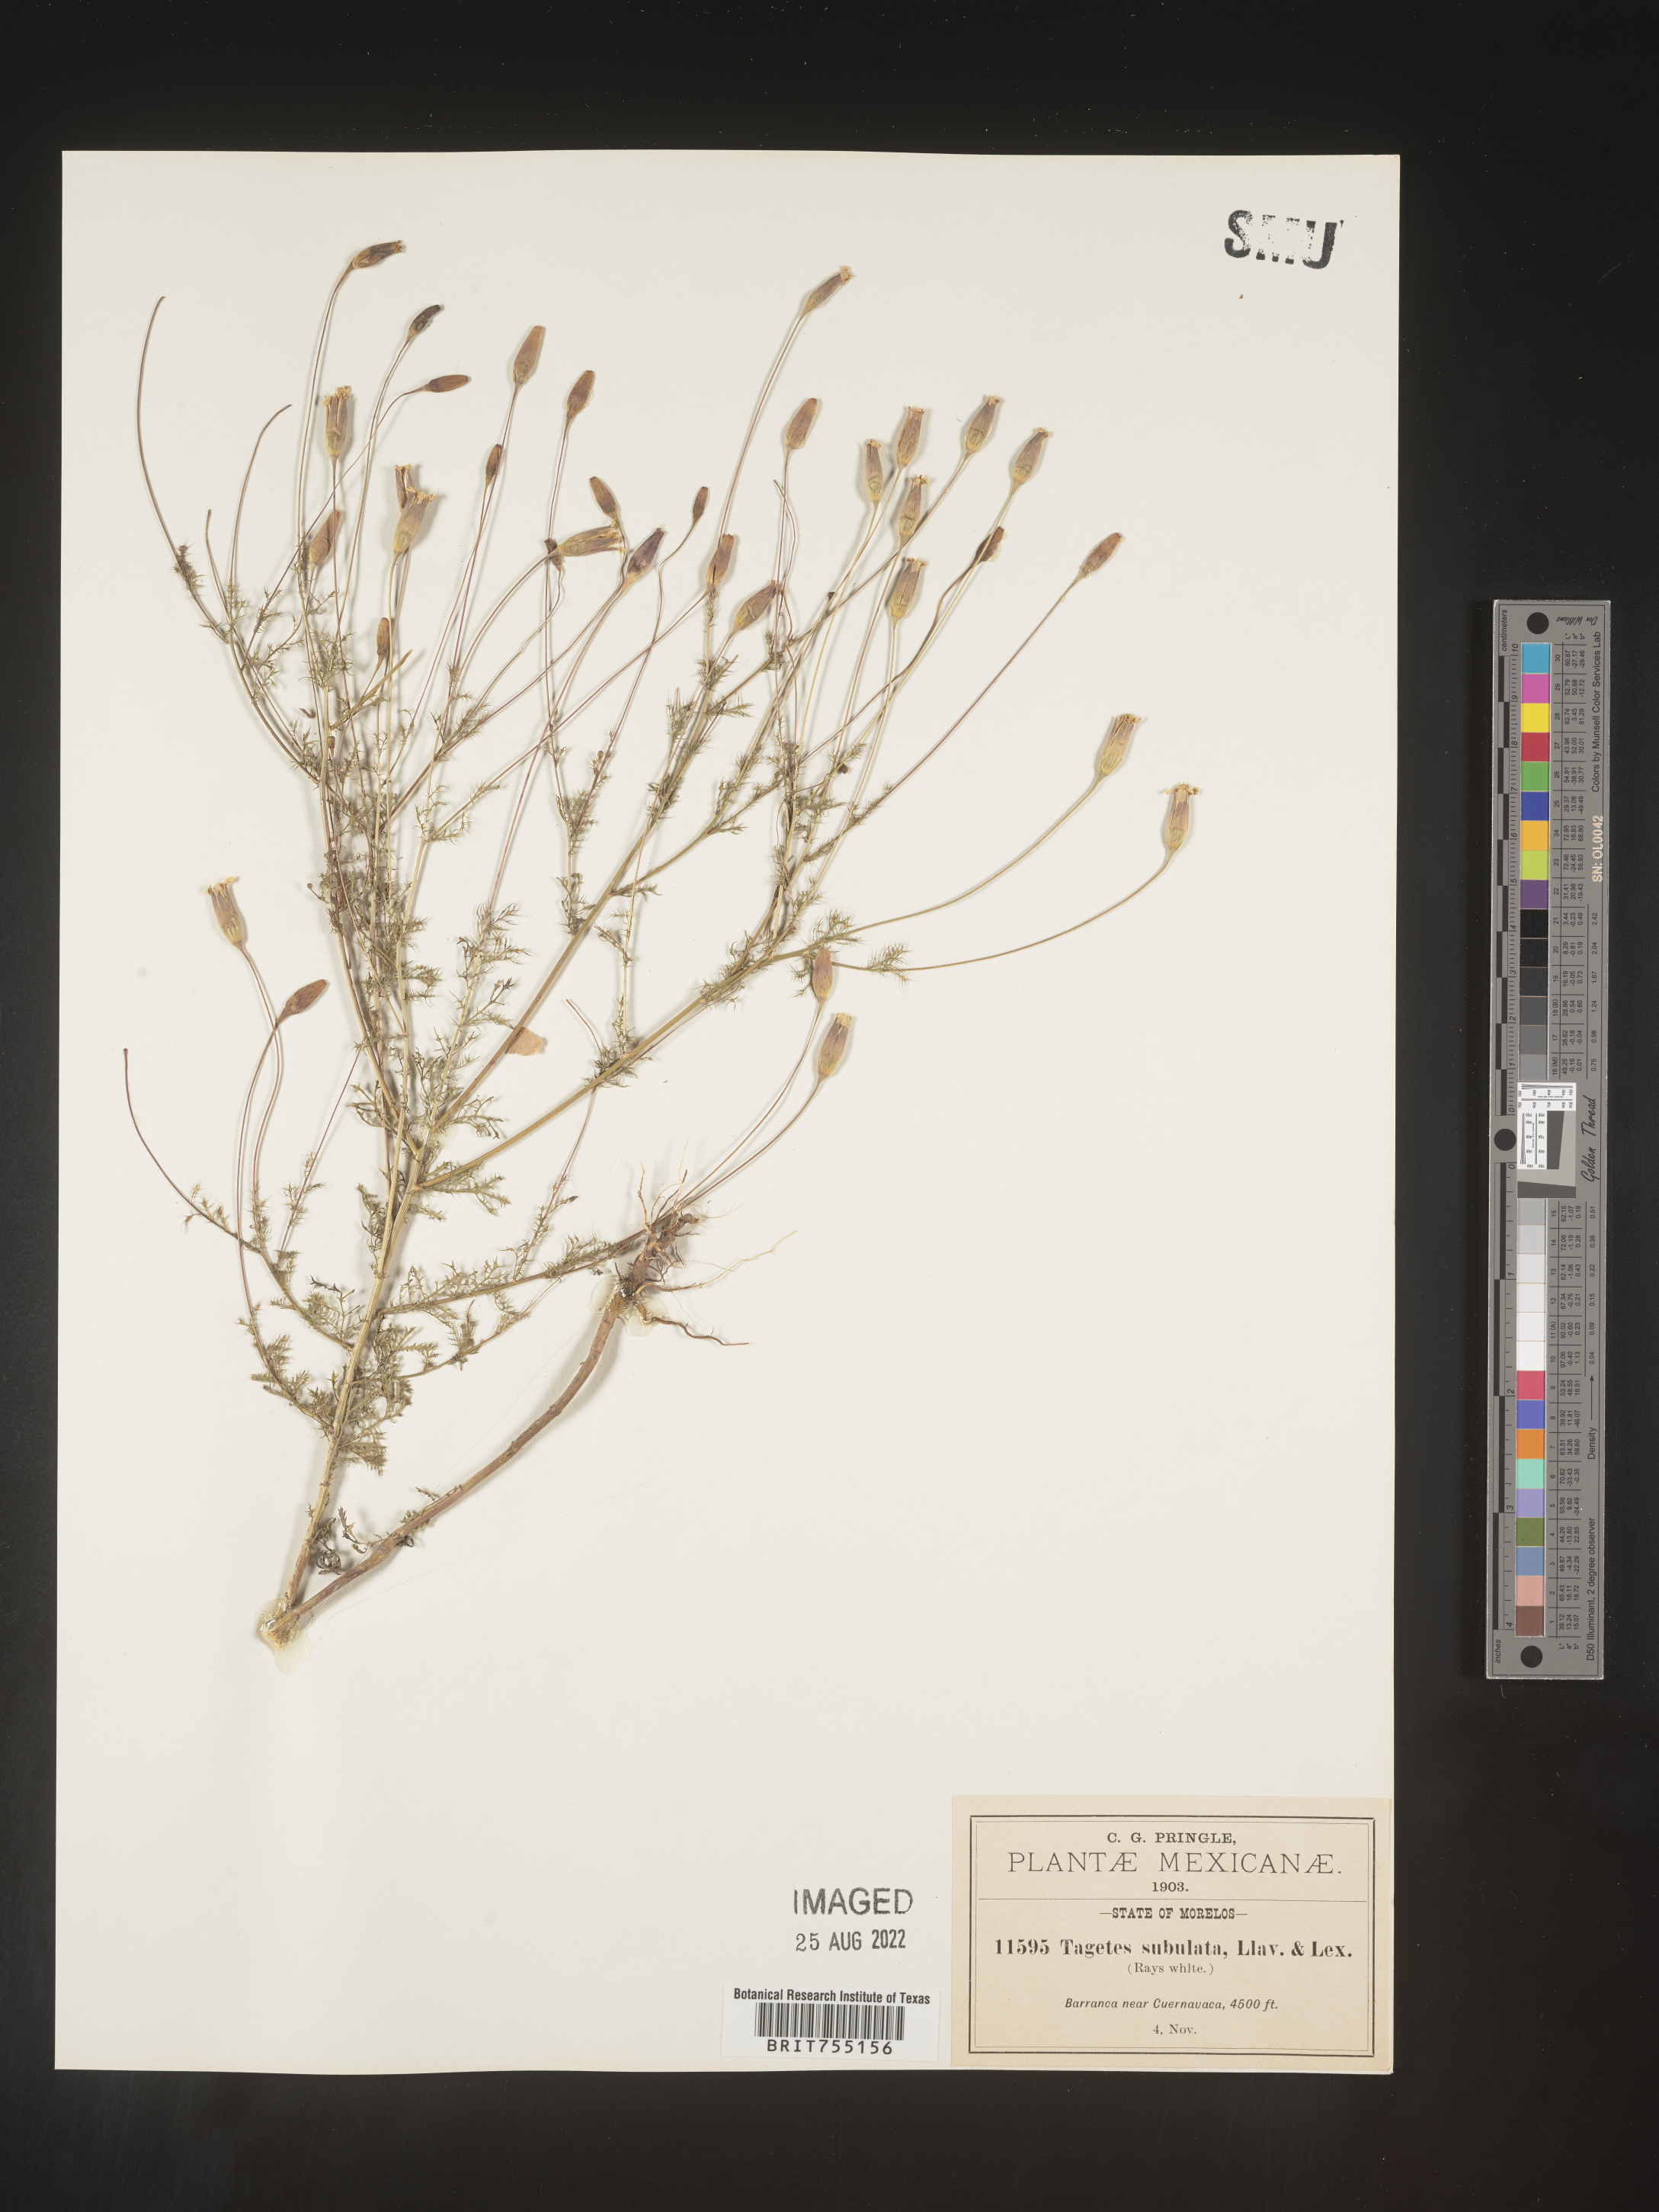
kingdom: Plantae
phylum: Tracheophyta
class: Magnoliopsida
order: Asterales
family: Asteraceae
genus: Tagetes
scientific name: Tagetes
